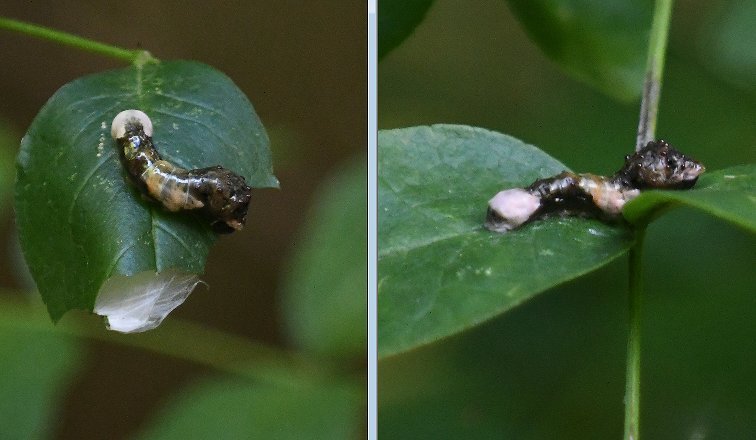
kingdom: Animalia
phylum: Arthropoda
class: Insecta
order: Lepidoptera
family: Papilionidae
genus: Papilio
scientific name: Papilio cresphontes
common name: Eastern Giant Swallowtail
